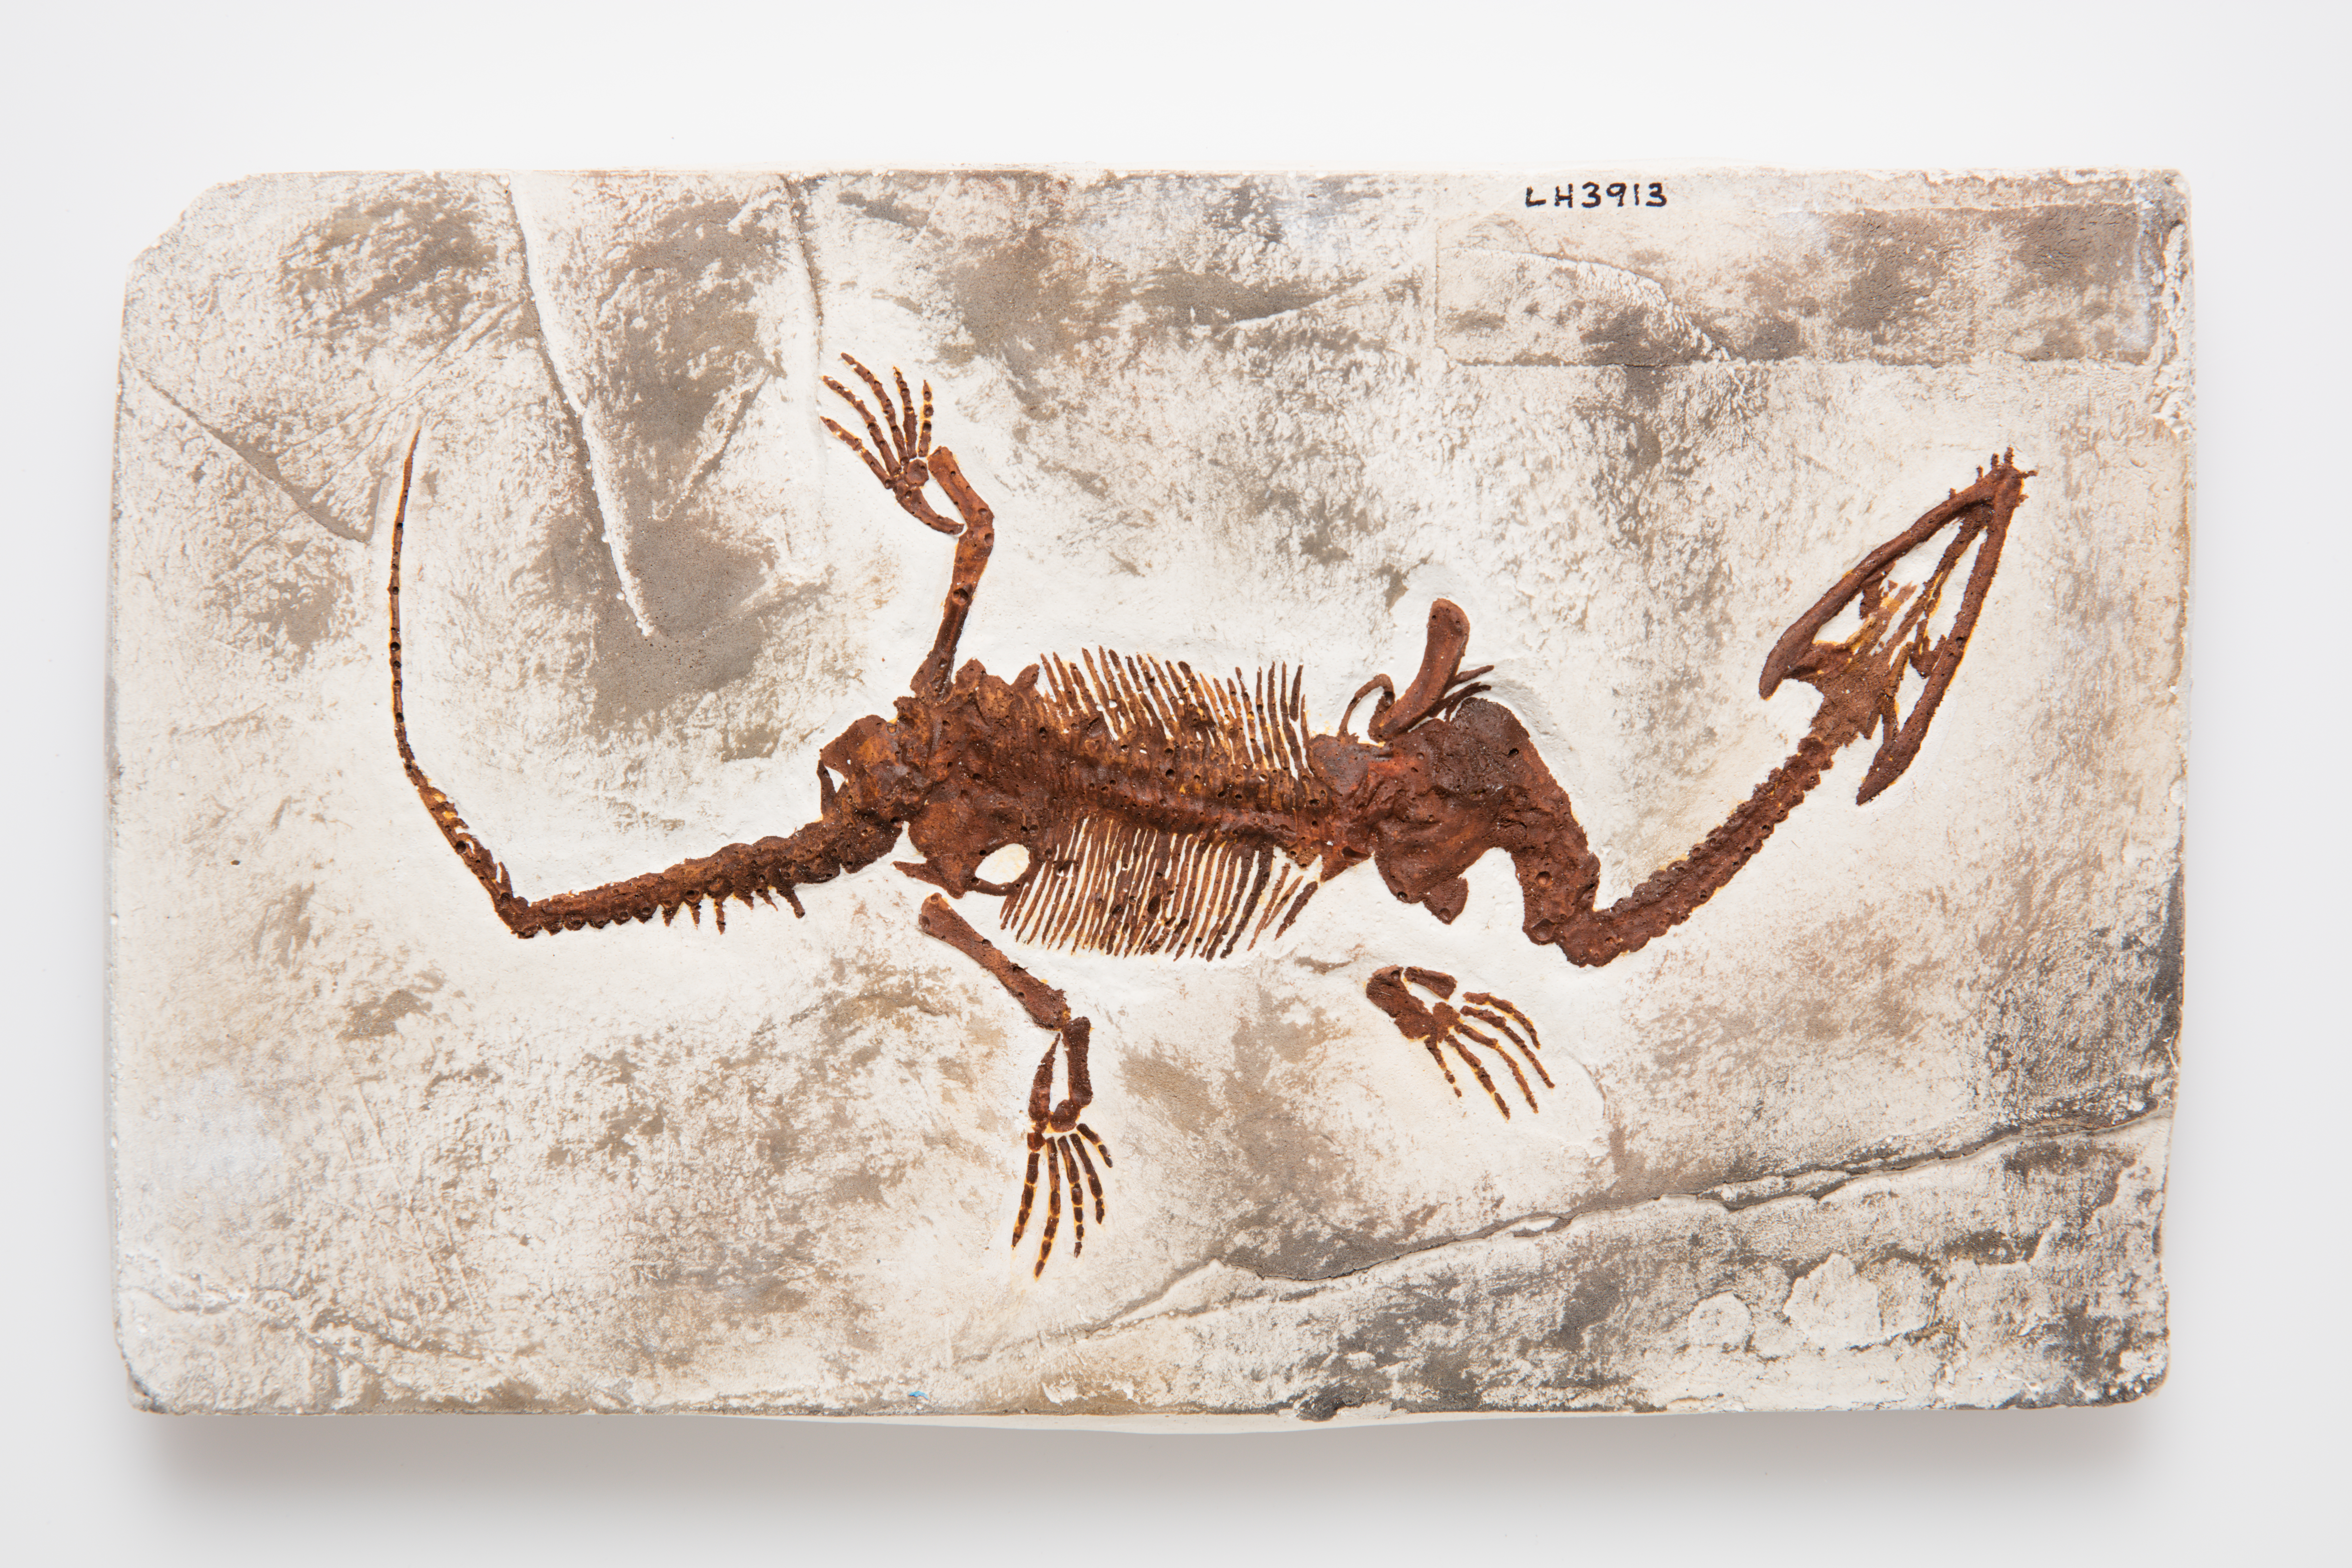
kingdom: Animalia
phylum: Chordata
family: Nothosauridae
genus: Lariosaurus
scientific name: Lariosaurus balsami
